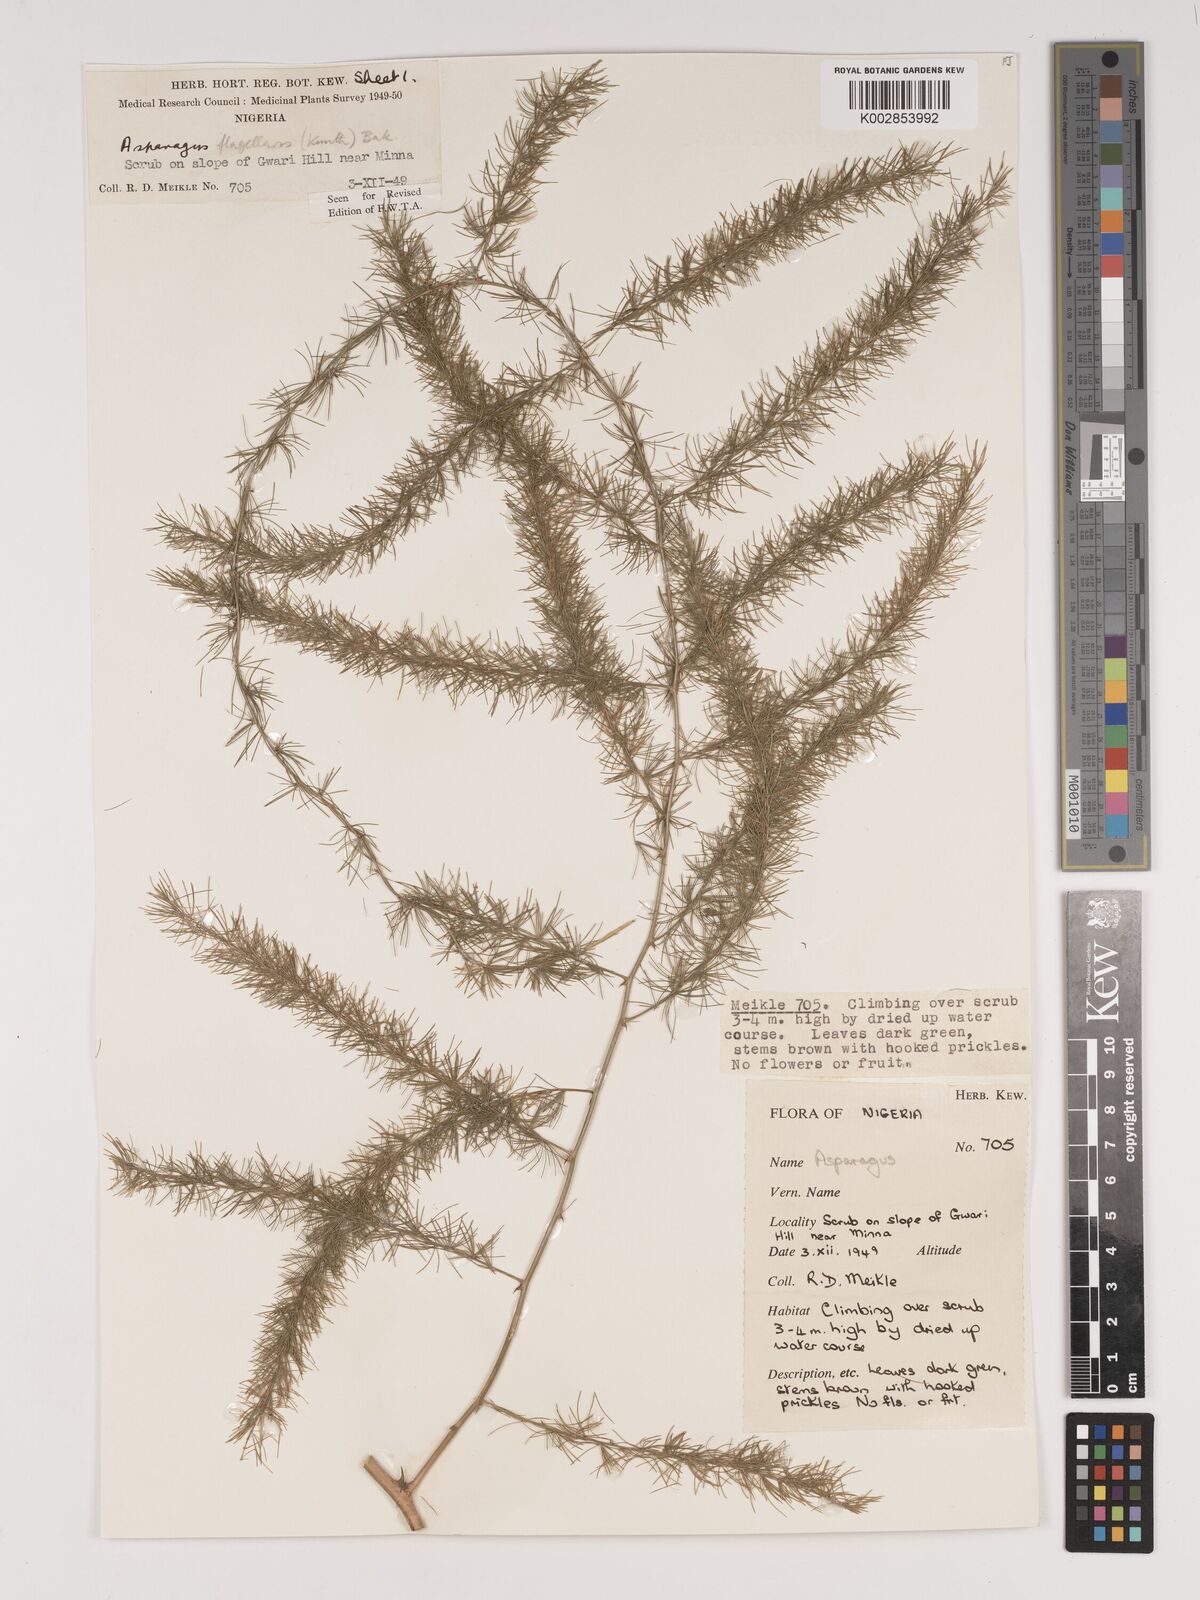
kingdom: Plantae
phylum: Tracheophyta
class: Liliopsida
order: Asparagales
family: Asparagaceae
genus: Asparagus
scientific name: Asparagus flagellaris
